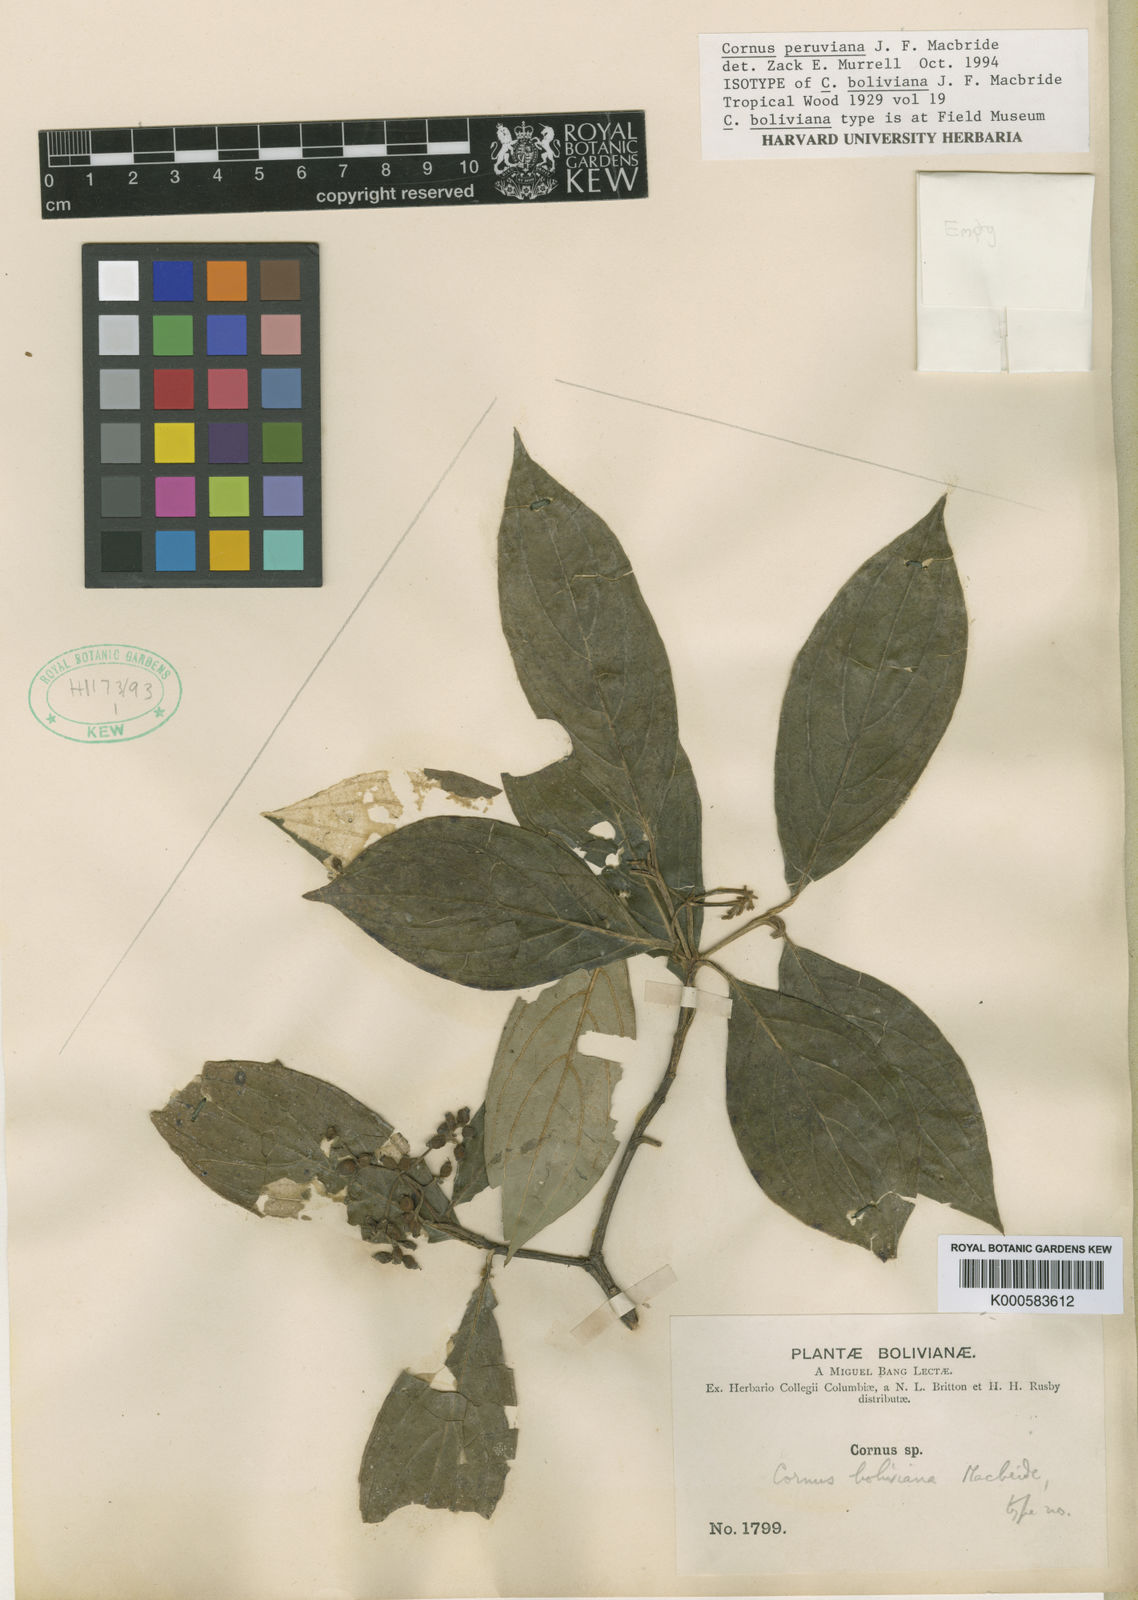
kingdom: Plantae
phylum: Tracheophyta
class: Magnoliopsida
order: Cornales
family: Cornaceae
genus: Cornus
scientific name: Cornus peruviana
